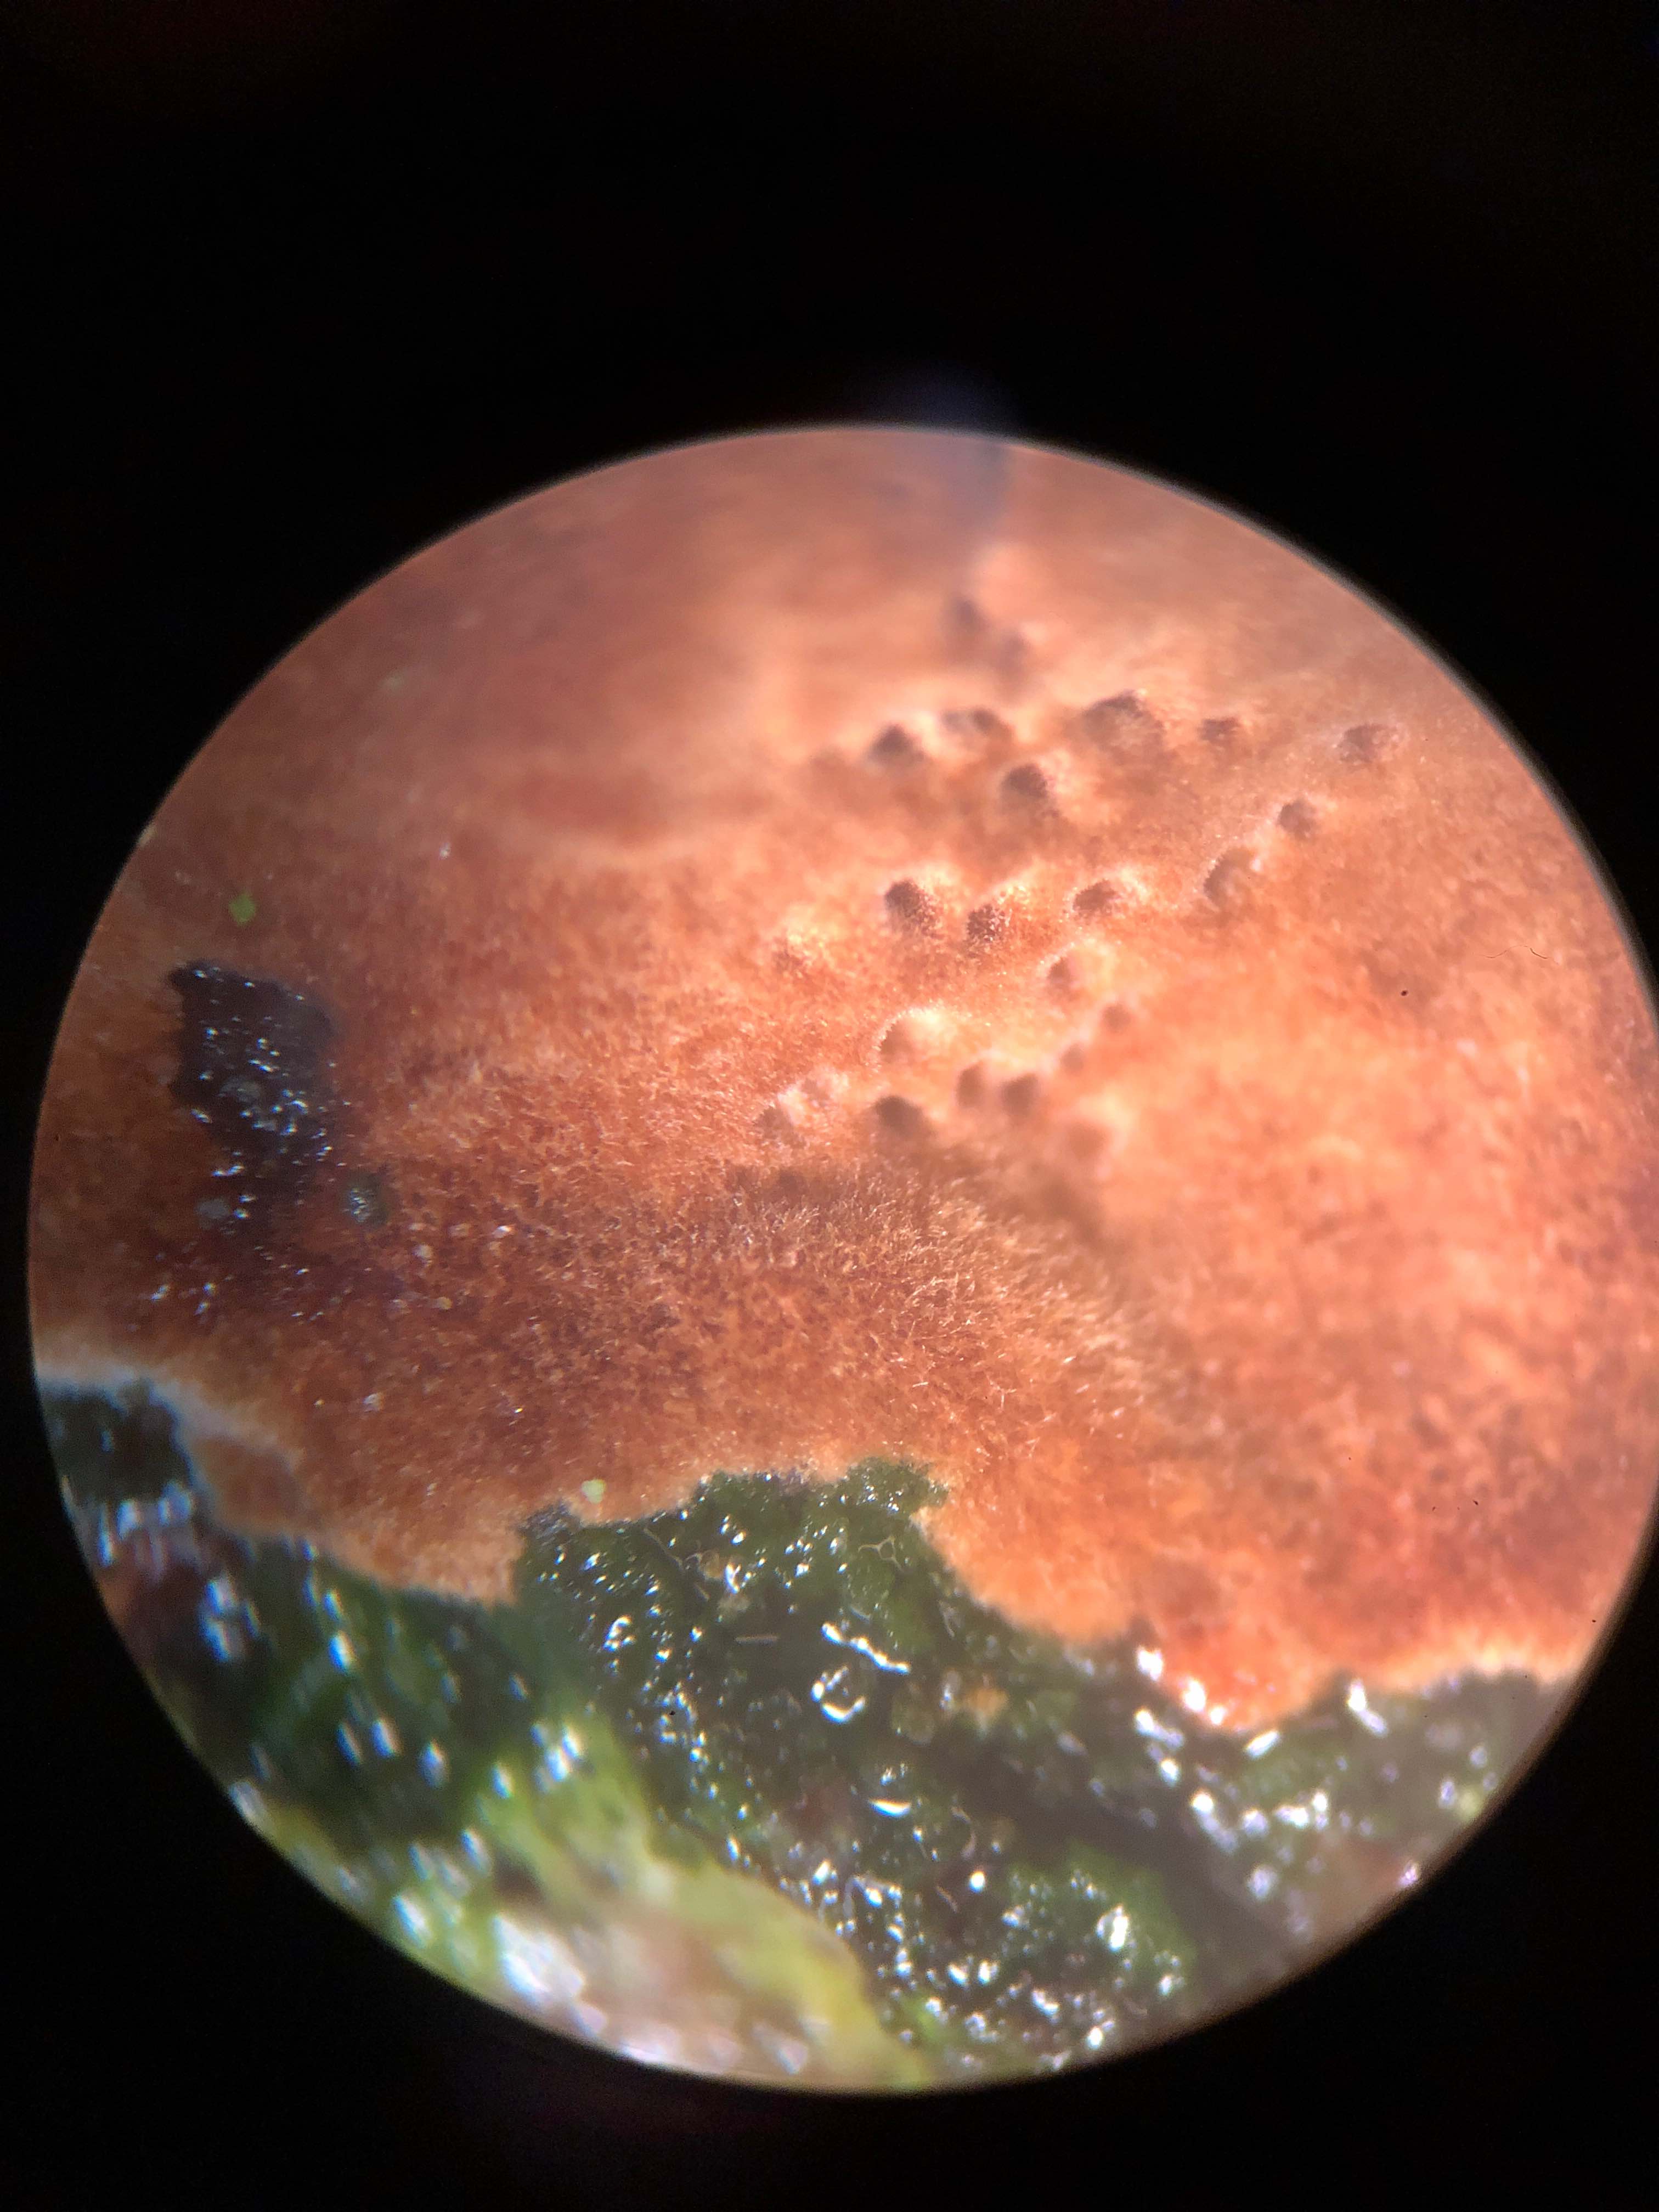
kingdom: Fungi
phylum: Basidiomycota
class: Agaricomycetes
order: Hymenochaetales
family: Hymenochaetaceae
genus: Fuscoporia
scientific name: Fuscoporia ferrea
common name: skorpe-ildporesvamp
